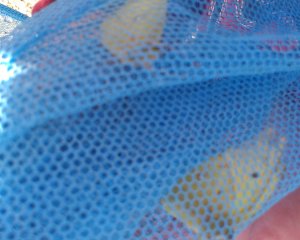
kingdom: Animalia
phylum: Arthropoda
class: Insecta
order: Lepidoptera
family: Pieridae
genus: Colias
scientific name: Colias philodice
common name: Clouded Sulphur
